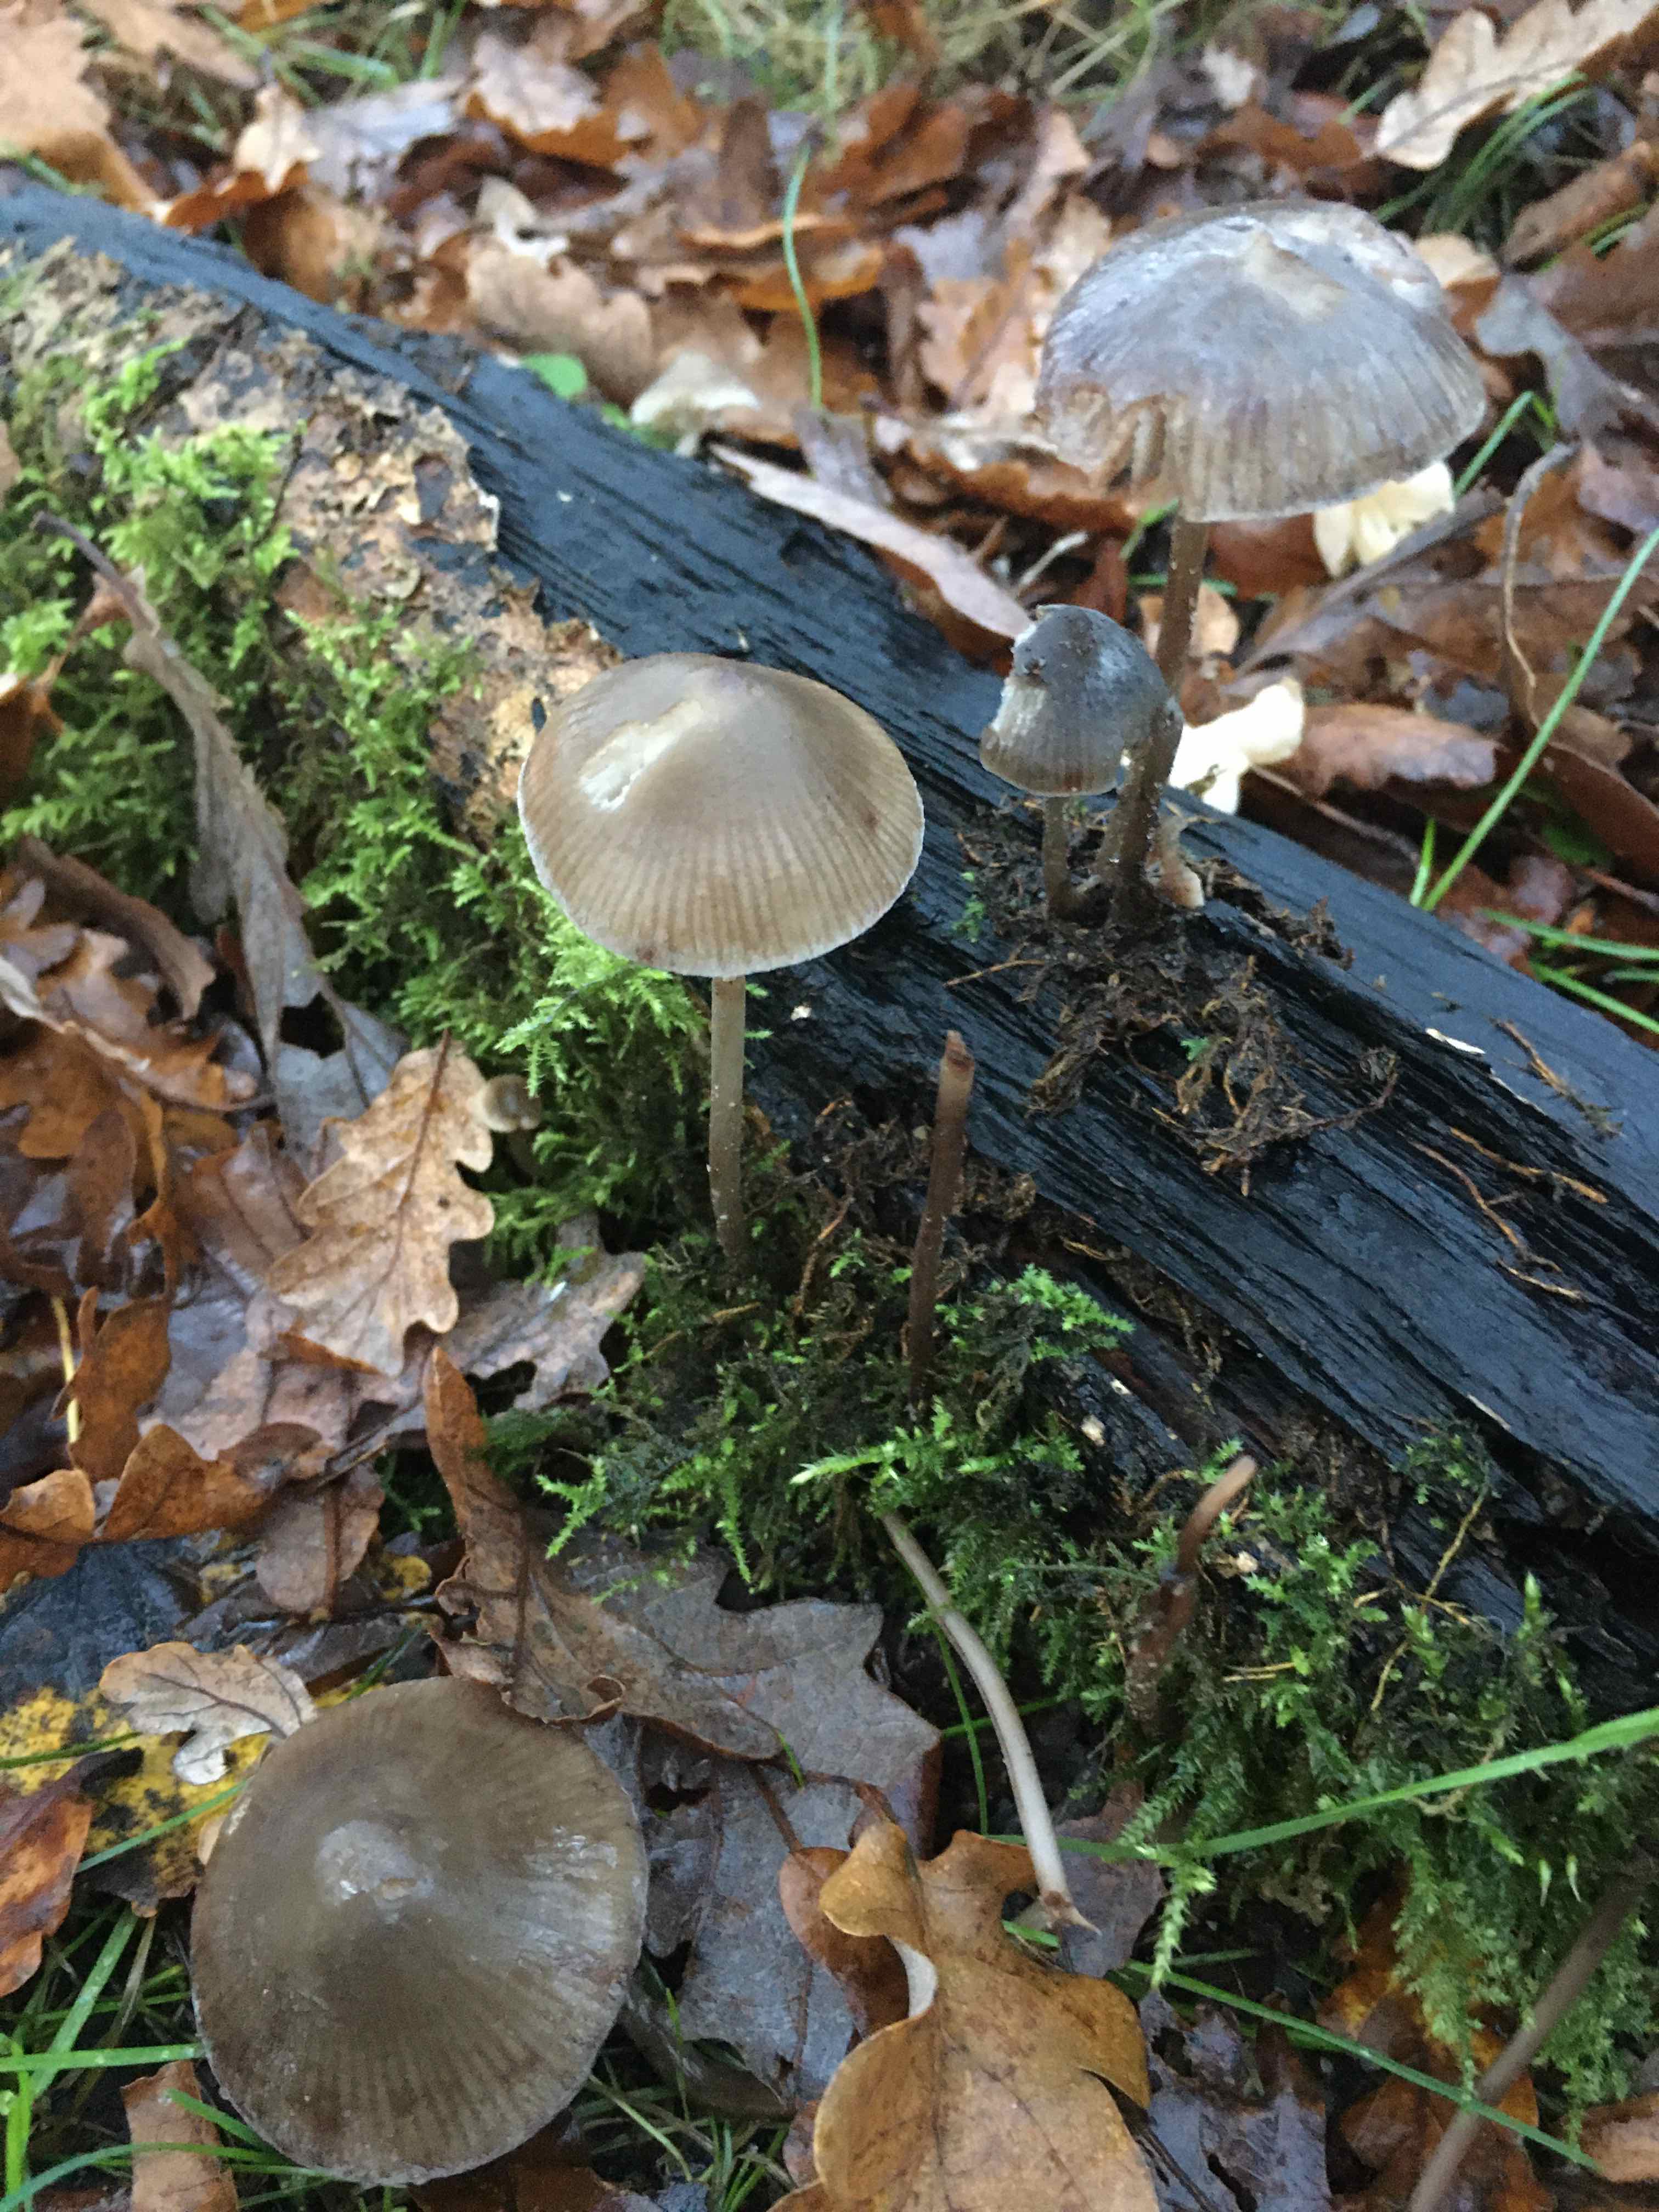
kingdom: Fungi
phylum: Basidiomycota
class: Agaricomycetes
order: Agaricales
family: Omphalotaceae
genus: Mycetinis
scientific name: Mycetinis alliaceus
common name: stor løghat
